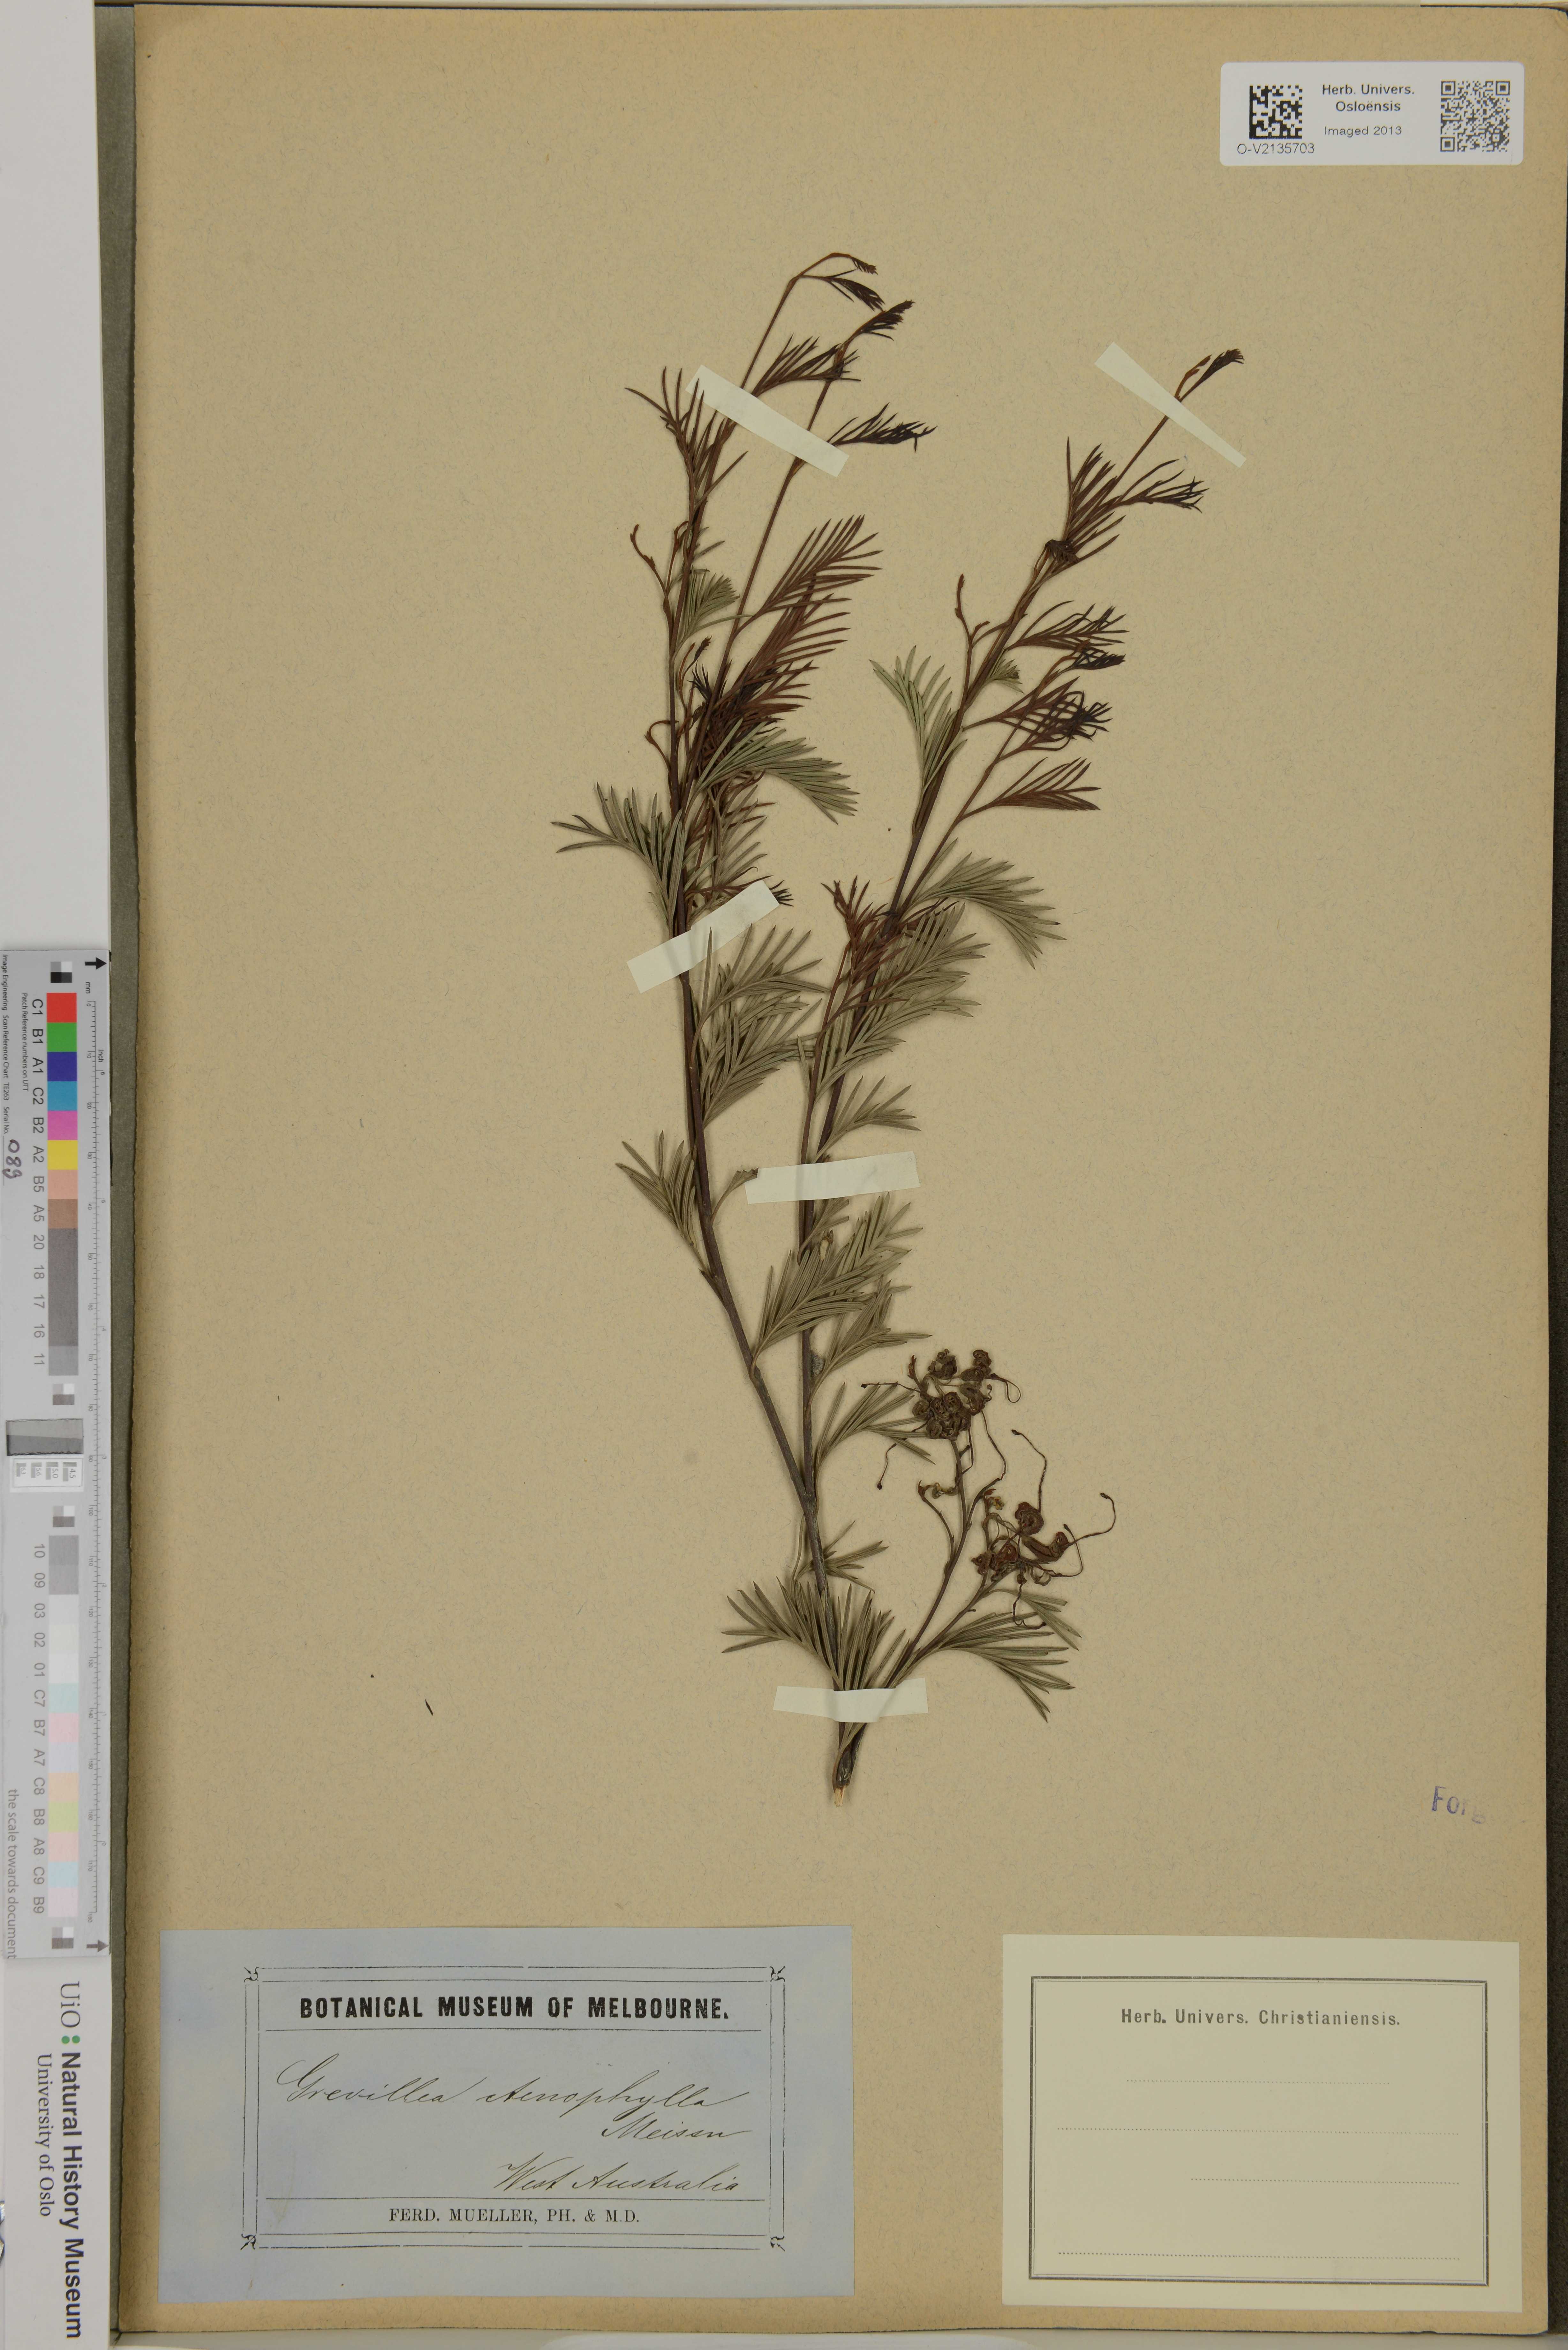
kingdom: Plantae
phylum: Tracheophyta
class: Magnoliopsida
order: Proteales
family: Proteaceae
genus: Grevillea
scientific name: Grevillea hakeoides
